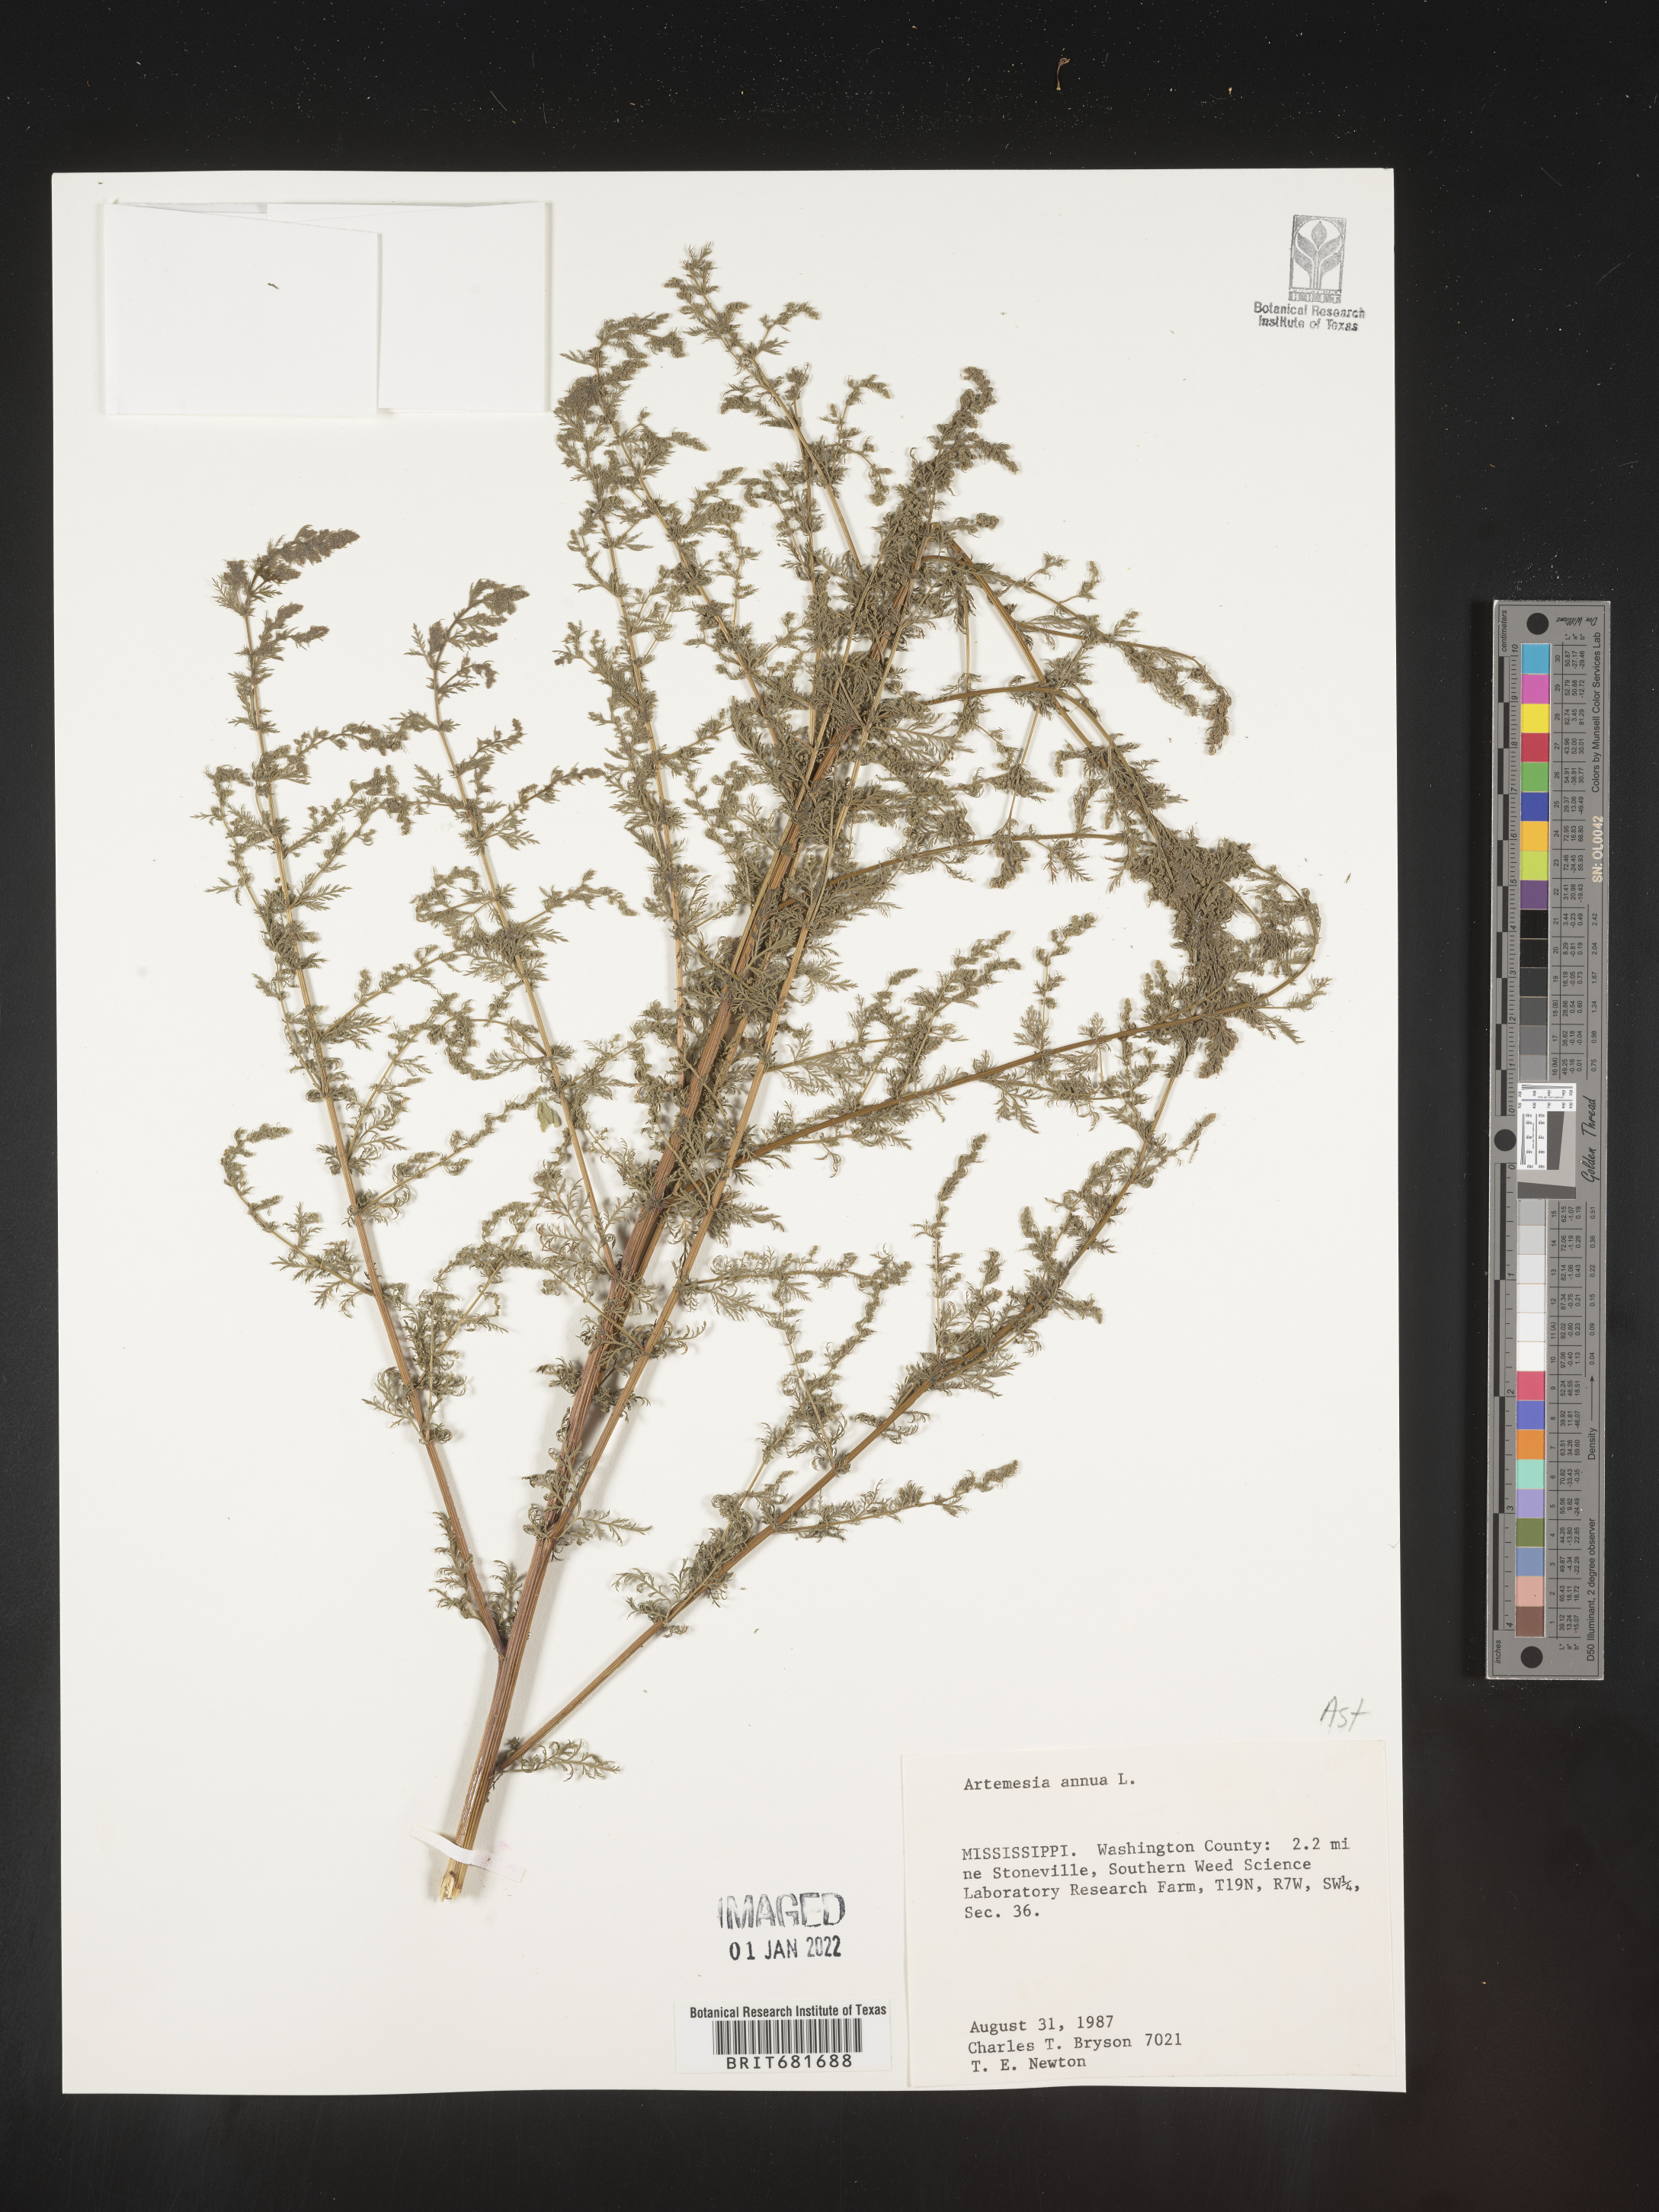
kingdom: Plantae
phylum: Tracheophyta
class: Magnoliopsida
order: Asterales
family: Asteraceae
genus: Artemisia
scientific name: Artemisia annua
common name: Sweet sagewort
